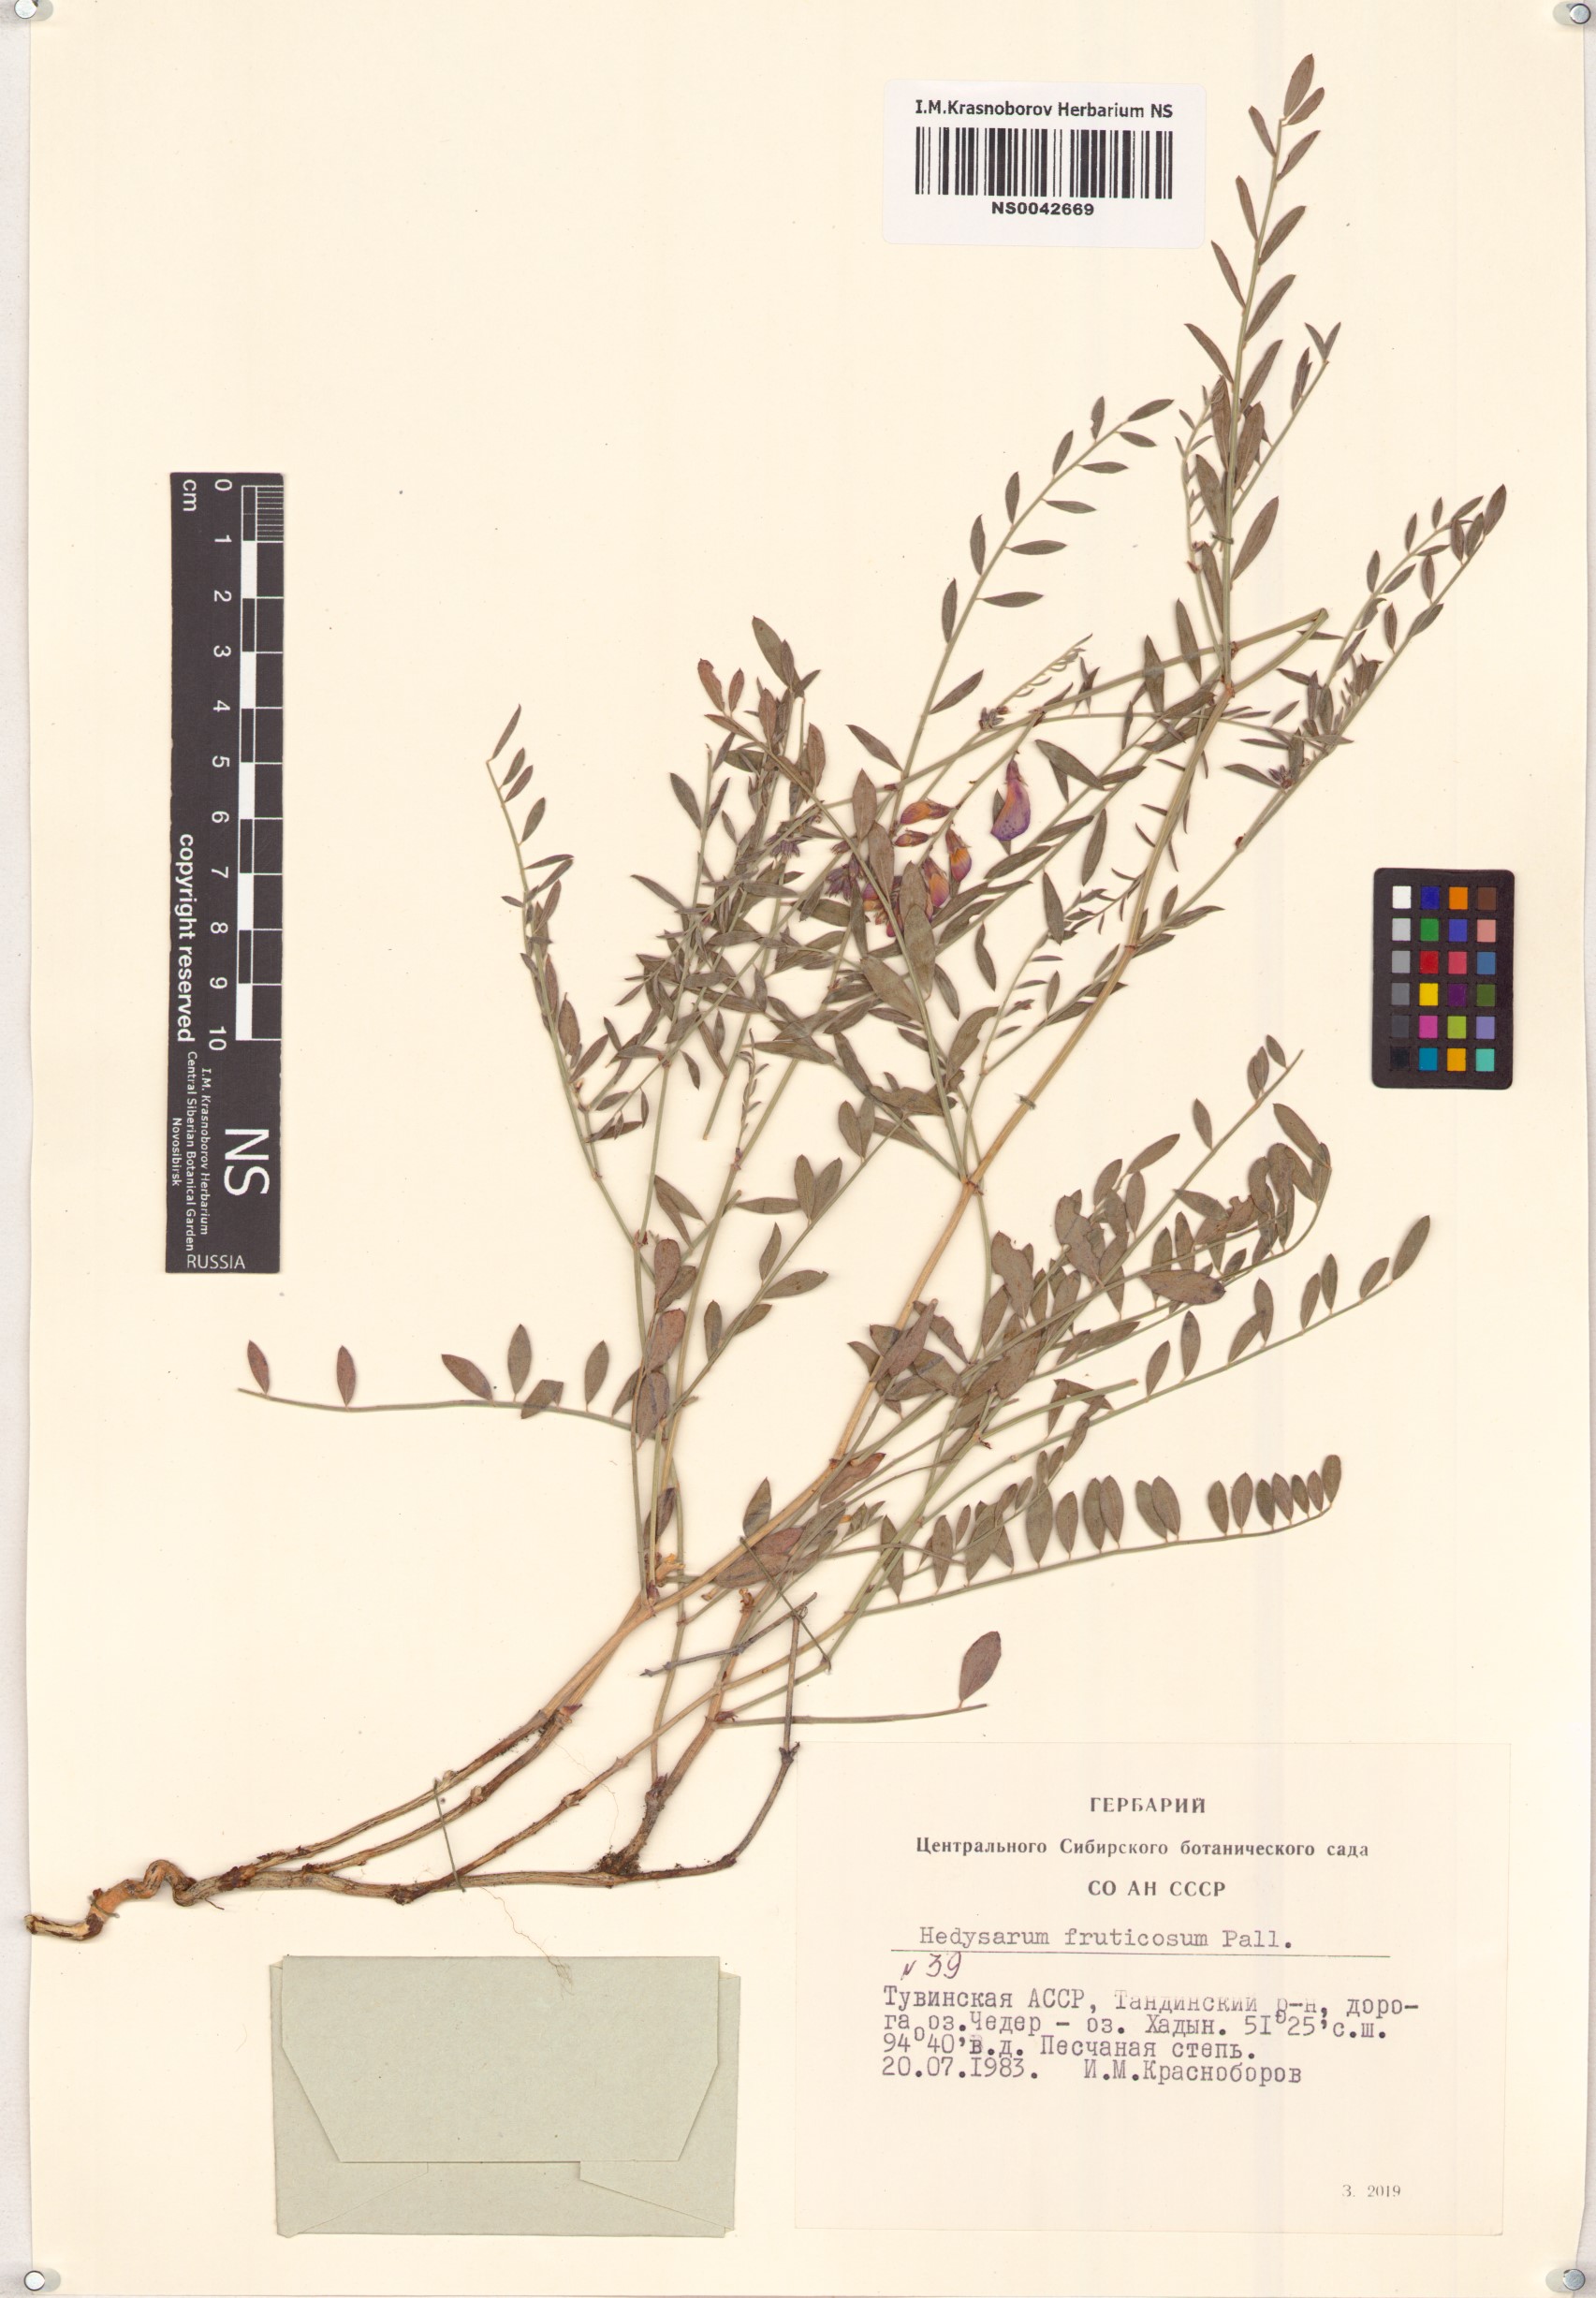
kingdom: Plantae
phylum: Tracheophyta
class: Magnoliopsida
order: Fabales
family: Fabaceae
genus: Corethrodendron
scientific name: Corethrodendron fruticosum
